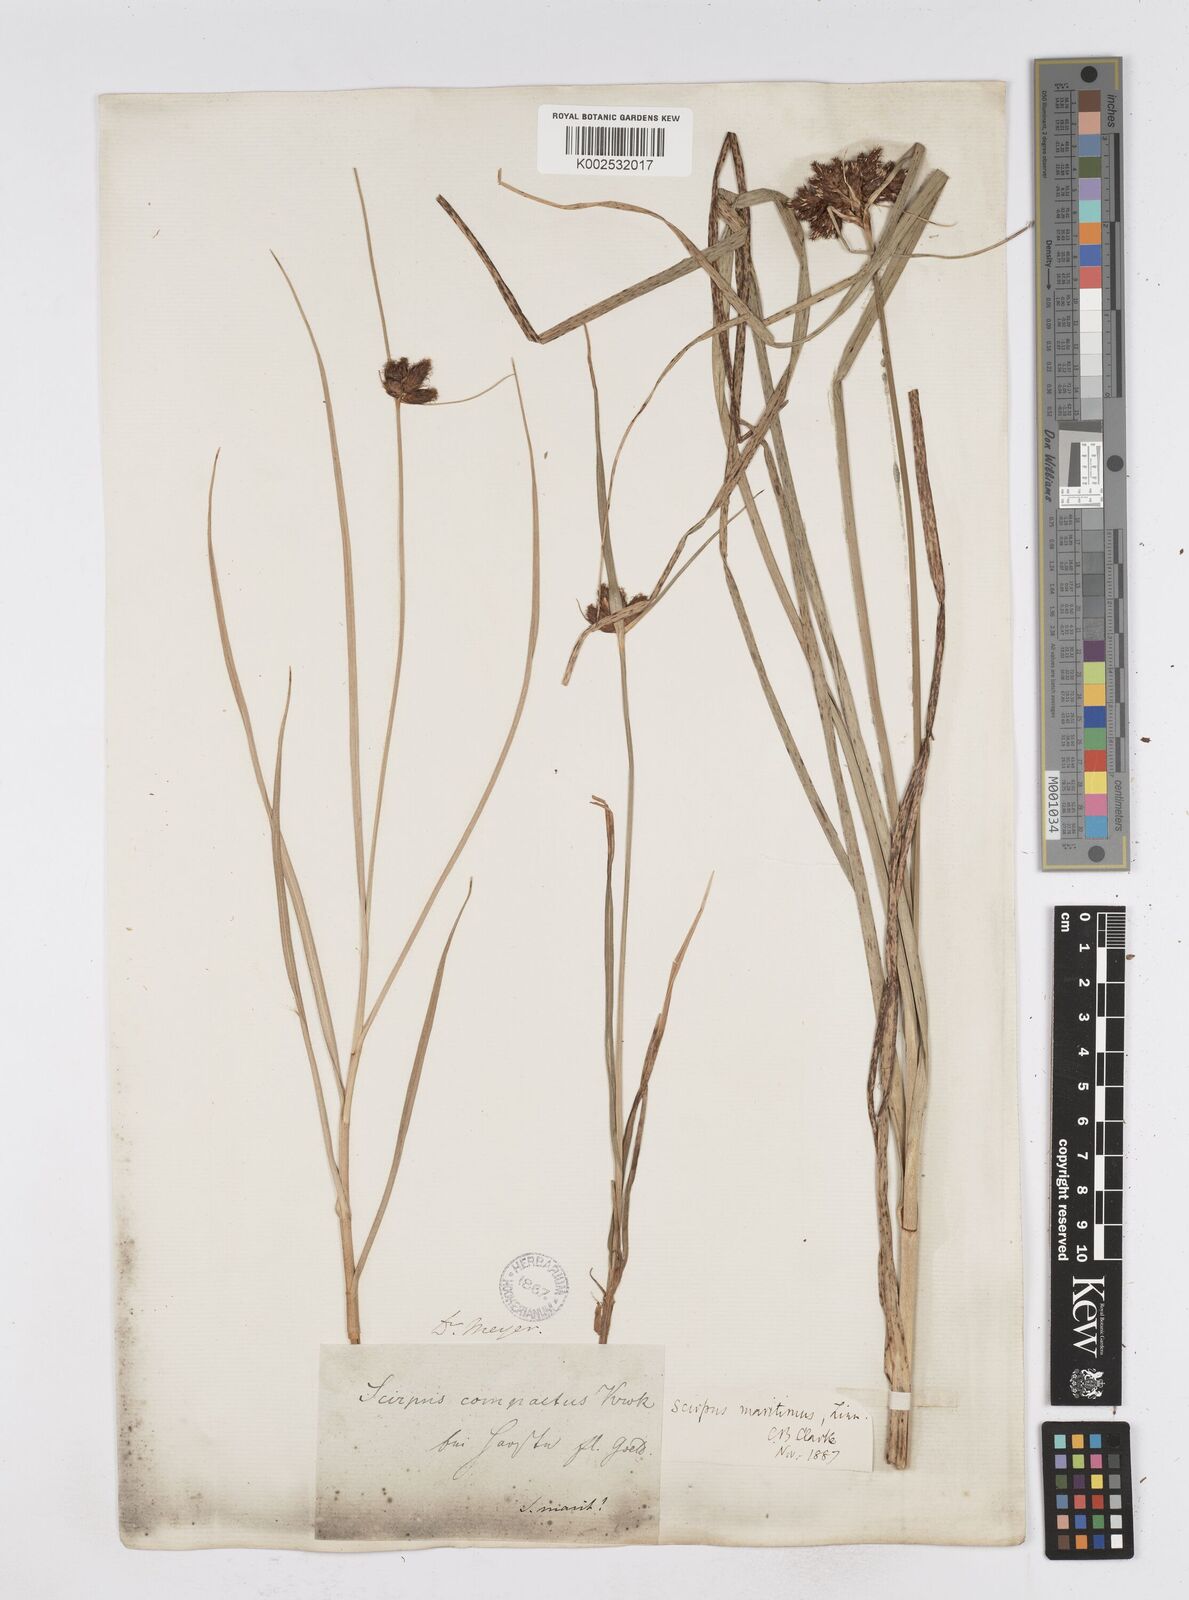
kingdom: Plantae
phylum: Tracheophyta
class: Liliopsida
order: Poales
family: Cyperaceae
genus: Bolboschoenus
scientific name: Bolboschoenus maritimus
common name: Sea club-rush
